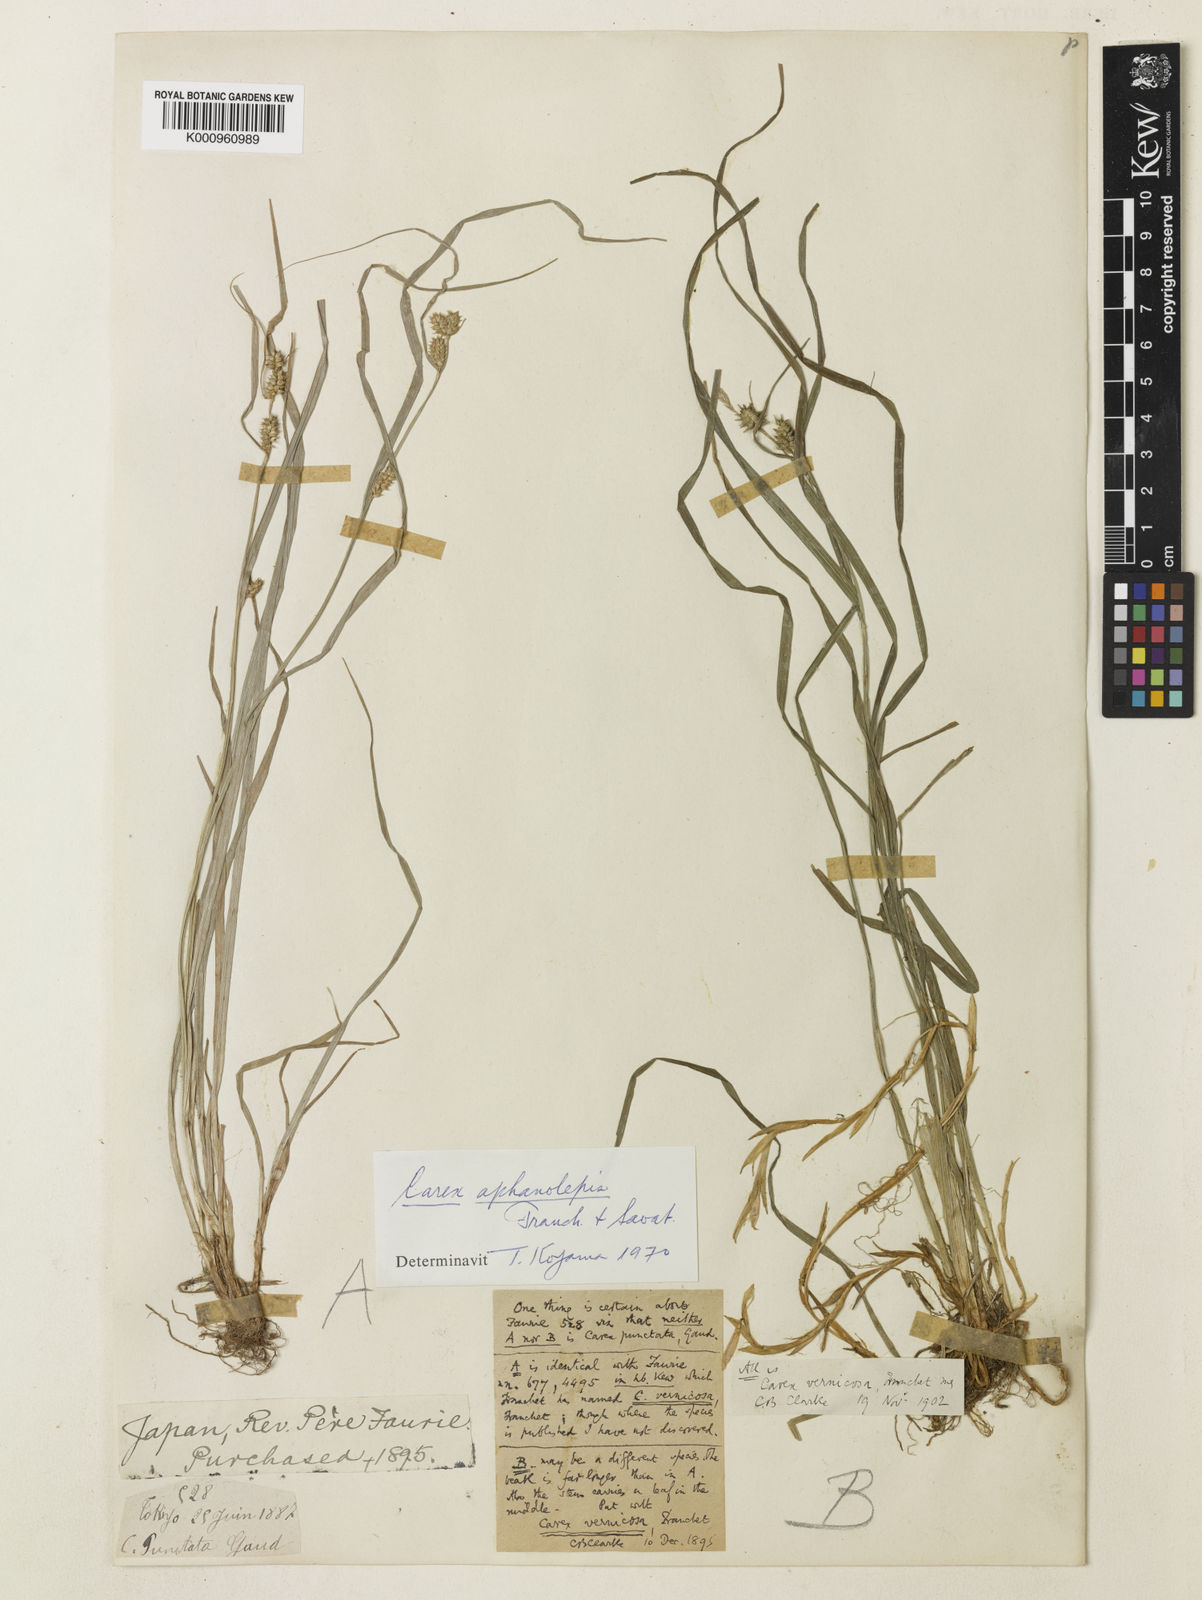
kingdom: Plantae
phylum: Tracheophyta
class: Liliopsida
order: Poales
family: Cyperaceae
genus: Carex
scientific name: Carex aphanolepis
